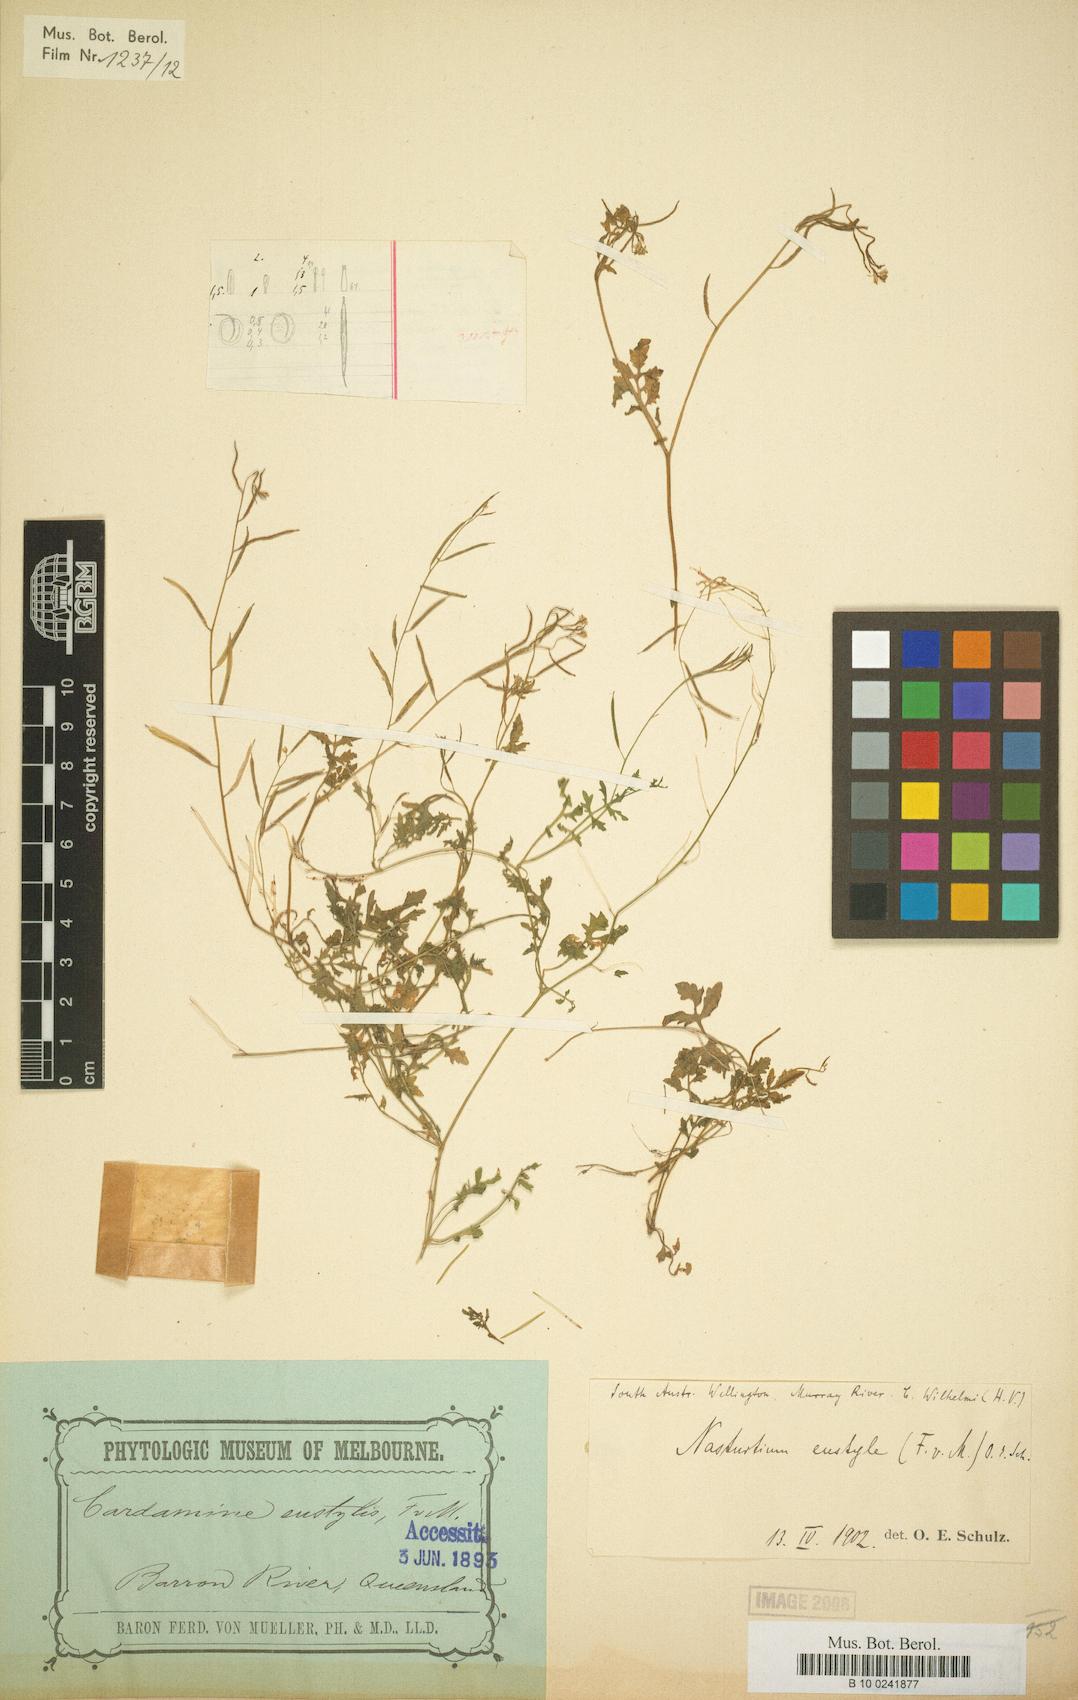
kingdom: Plantae
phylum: Tracheophyta
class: Magnoliopsida
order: Brassicales
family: Brassicaceae
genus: Rorippa
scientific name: Rorippa eustylis
